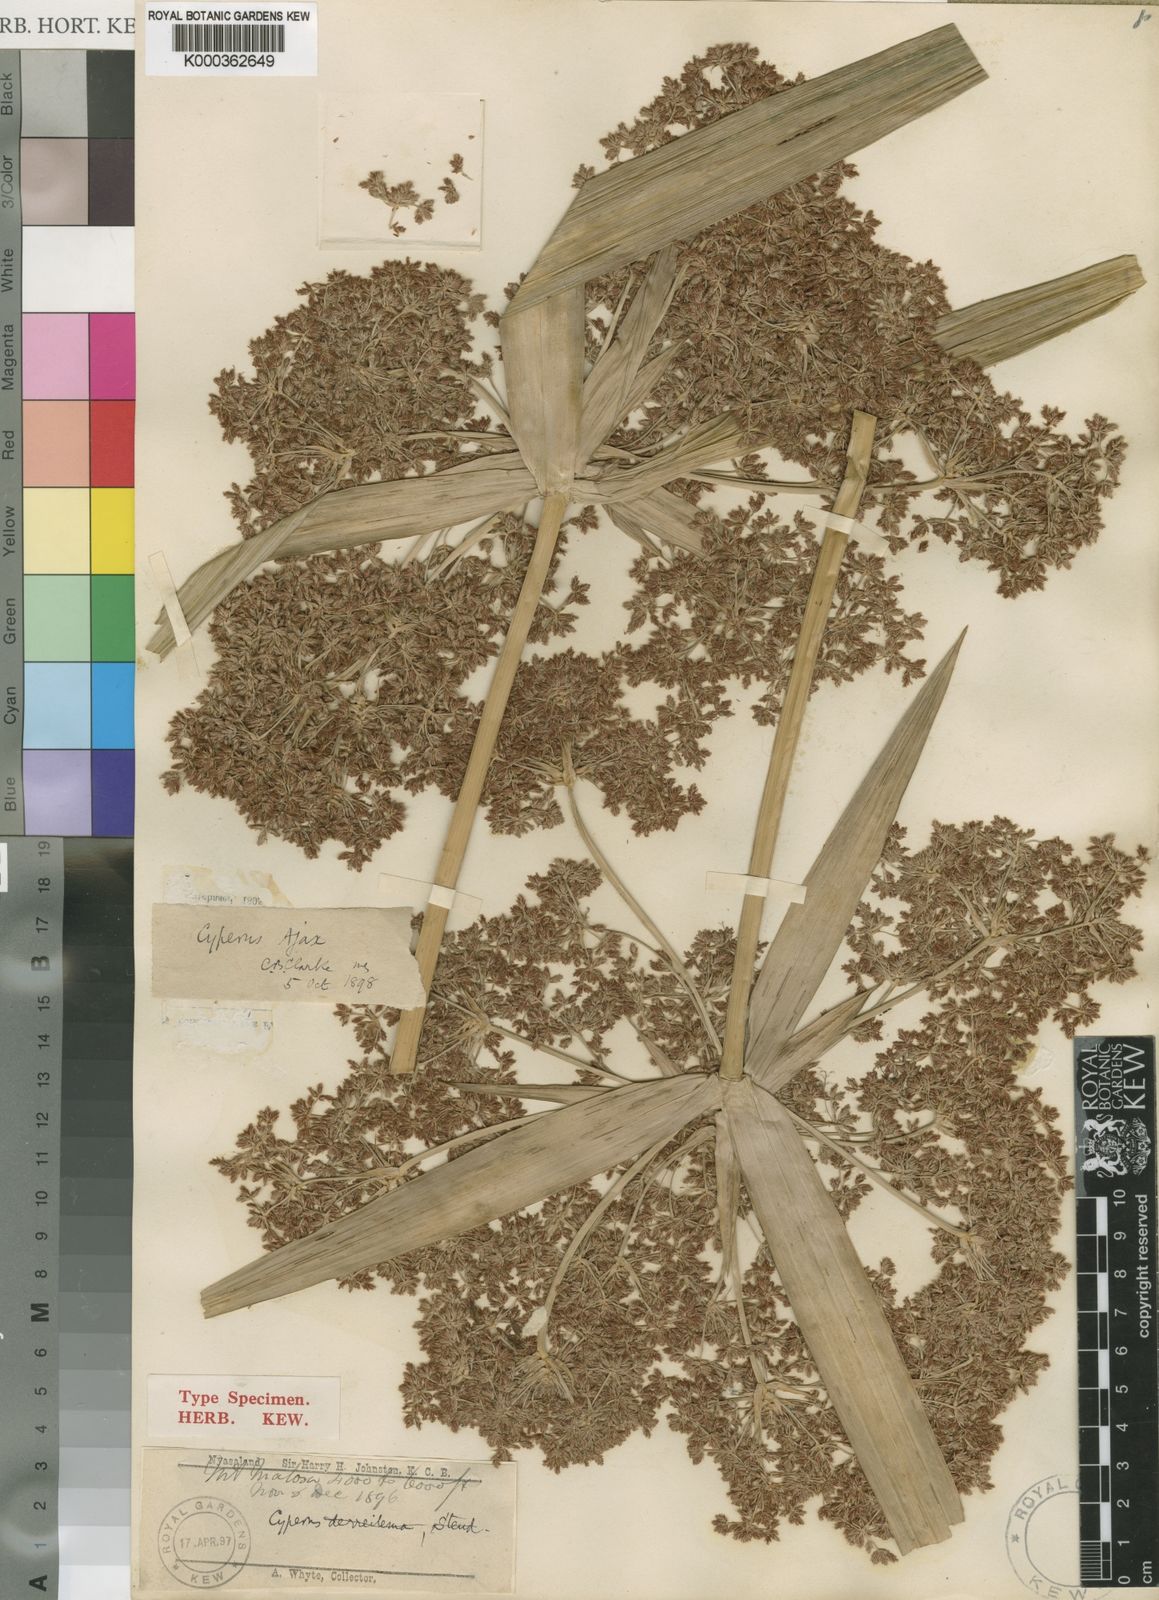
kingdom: Plantae
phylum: Tracheophyta
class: Liliopsida
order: Poales
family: Cyperaceae
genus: Cyperus
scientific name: Cyperus ajax
